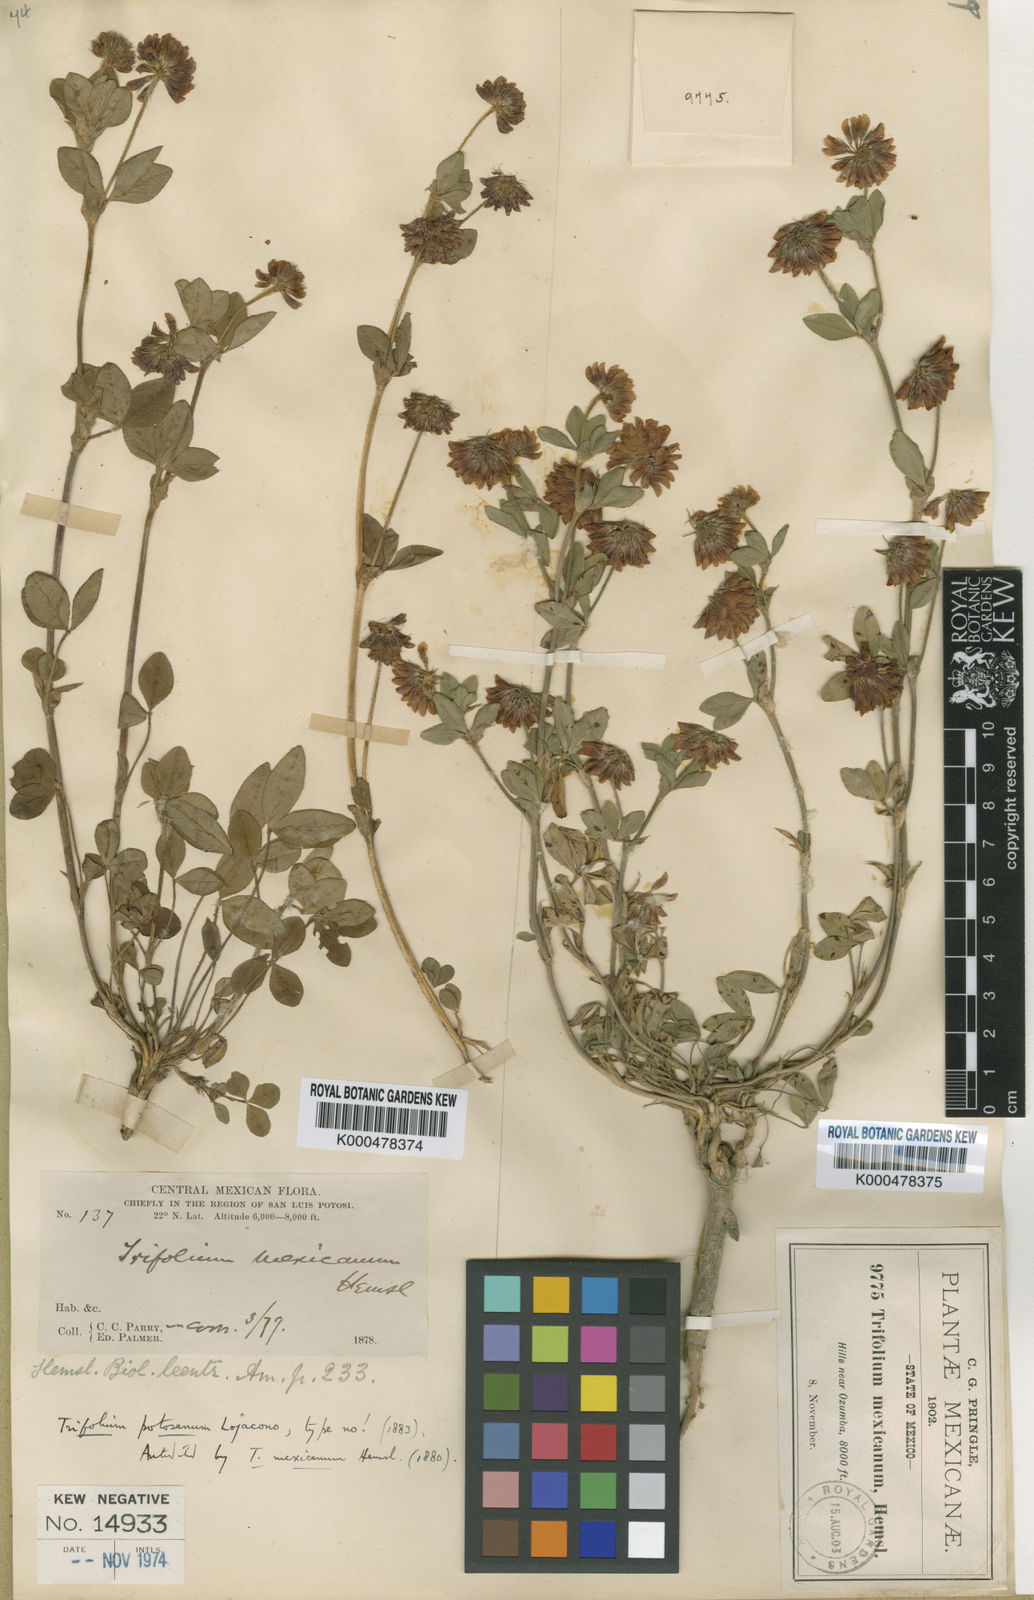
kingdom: Plantae
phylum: Tracheophyta
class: Magnoliopsida
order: Fabales
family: Fabaceae
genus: Trifolium
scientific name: Trifolium amabile
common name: Aztec clover
